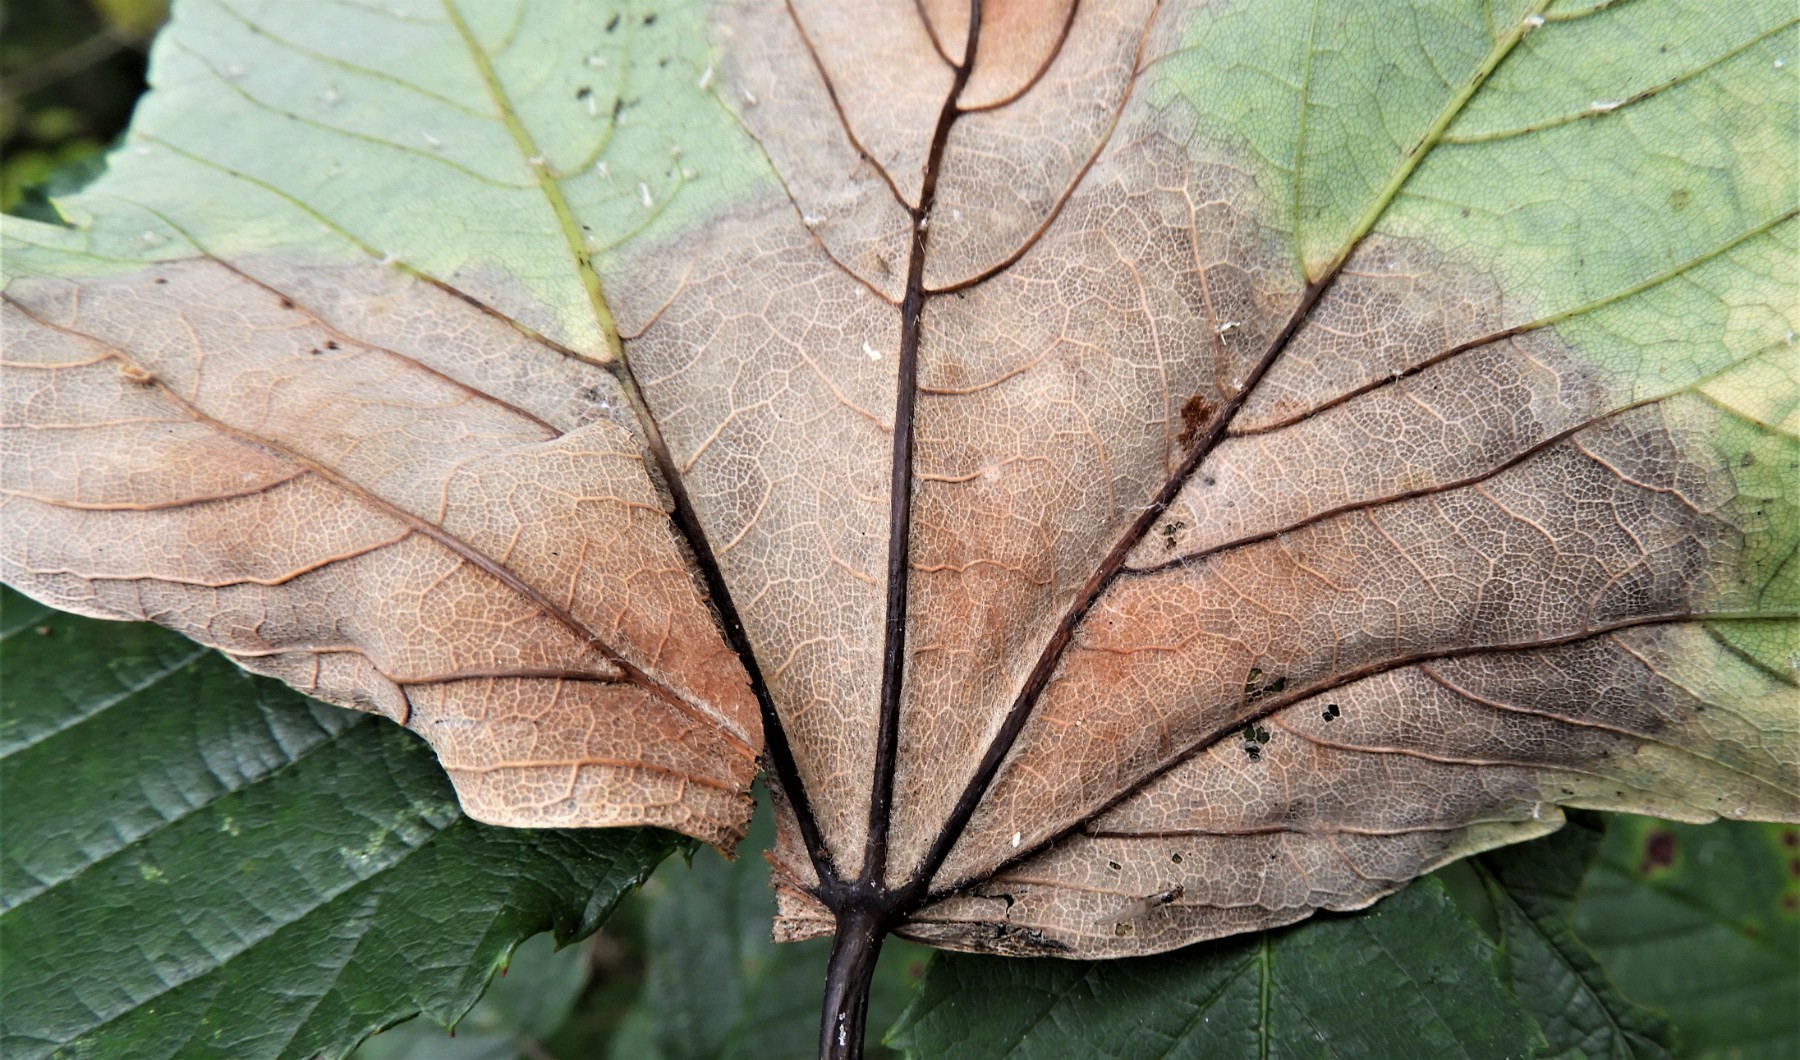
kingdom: Fungi
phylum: Ascomycota
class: Sordariomycetes
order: Diaporthales
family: Gnomoniaceae
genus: Pleuroceras
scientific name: Pleuroceras pseudoplatani
